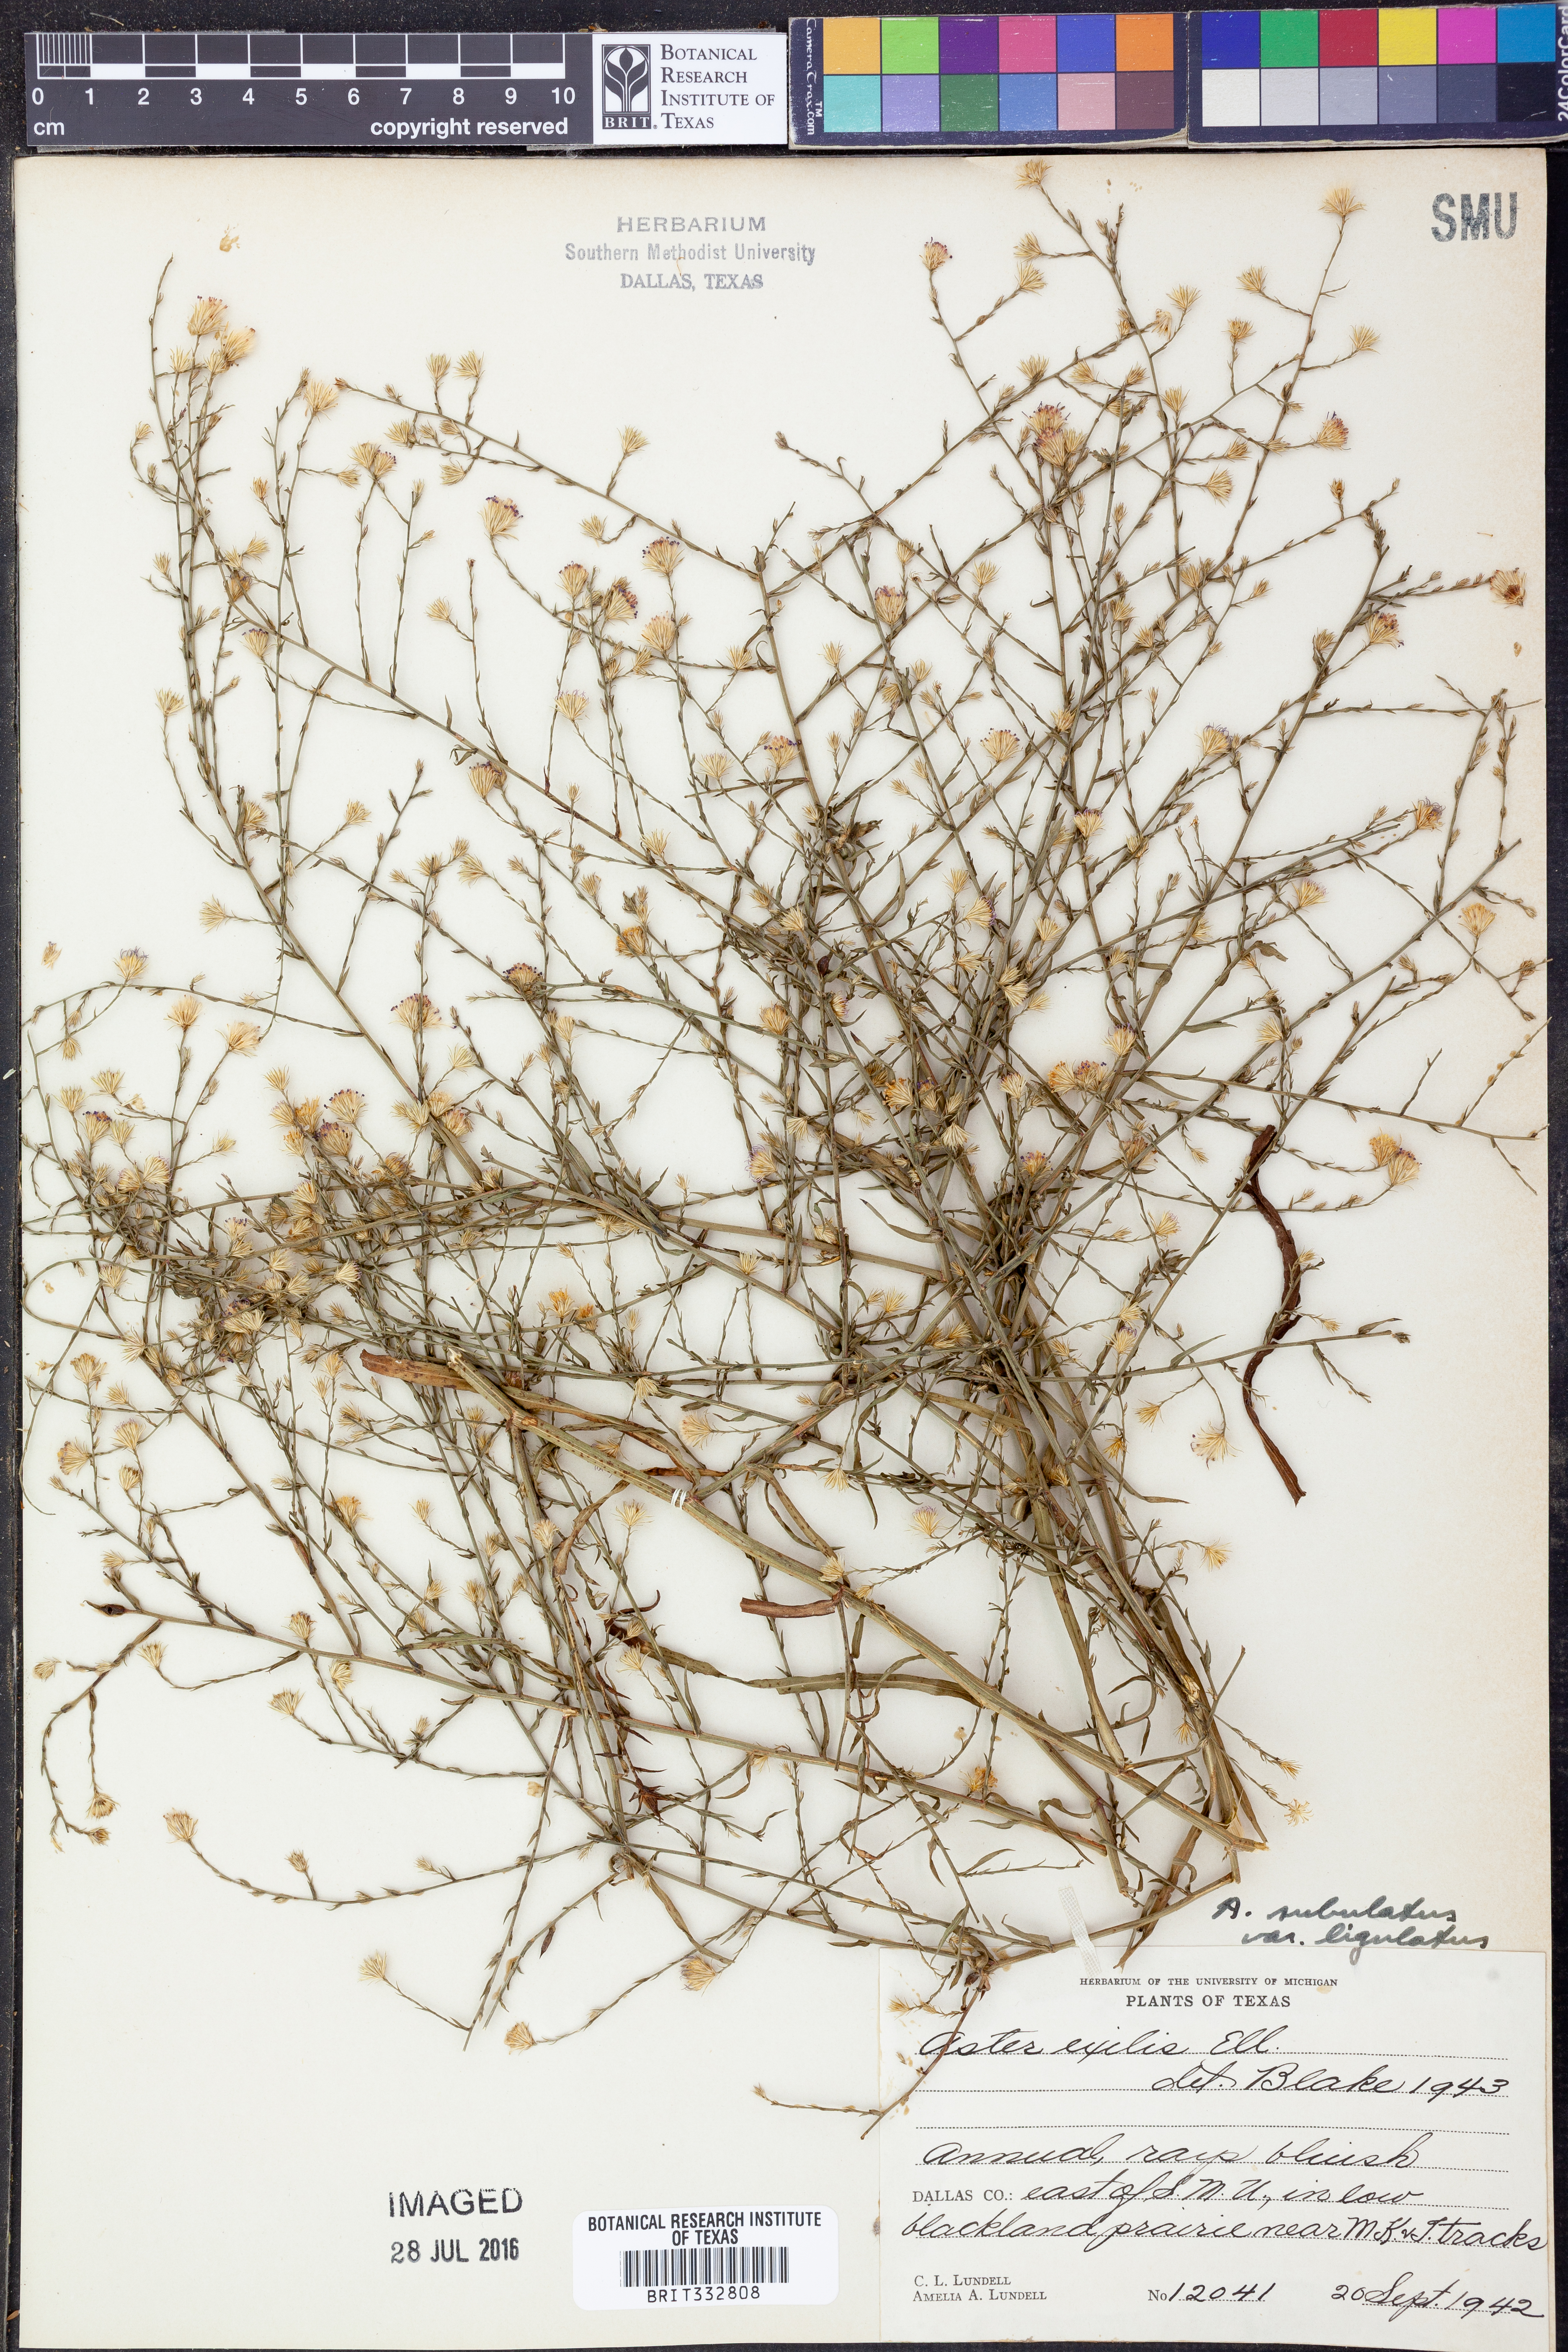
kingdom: Plantae
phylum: Tracheophyta
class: Magnoliopsida
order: Asterales
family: Asteraceae
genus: Symphyotrichum
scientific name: Symphyotrichum divaricatum
